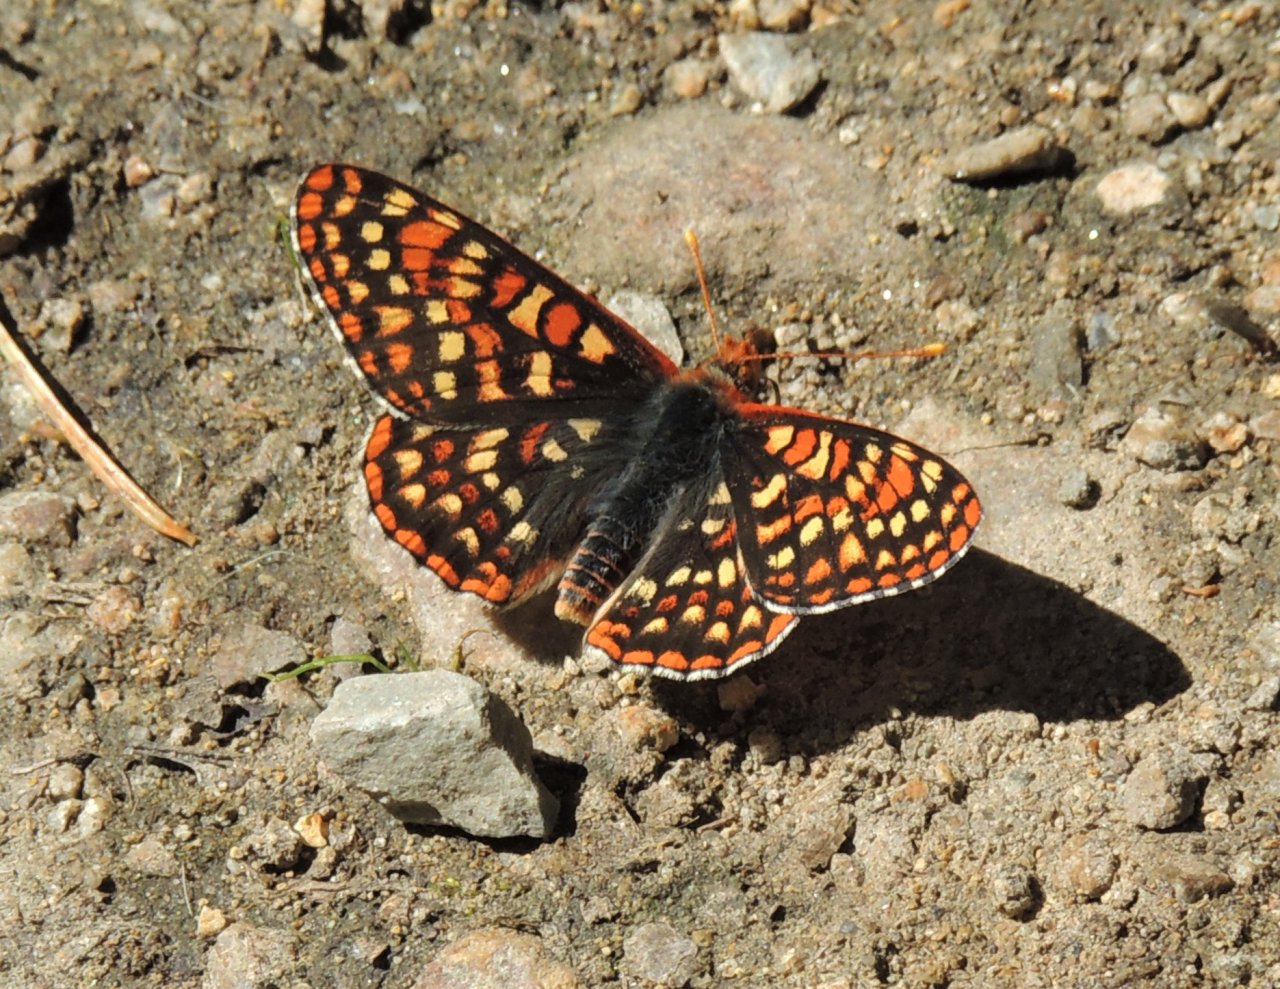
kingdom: Animalia
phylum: Arthropoda
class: Insecta
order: Lepidoptera
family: Nymphalidae
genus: Occidryas
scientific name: Occidryas anicia
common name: Anicia Checkerspot
